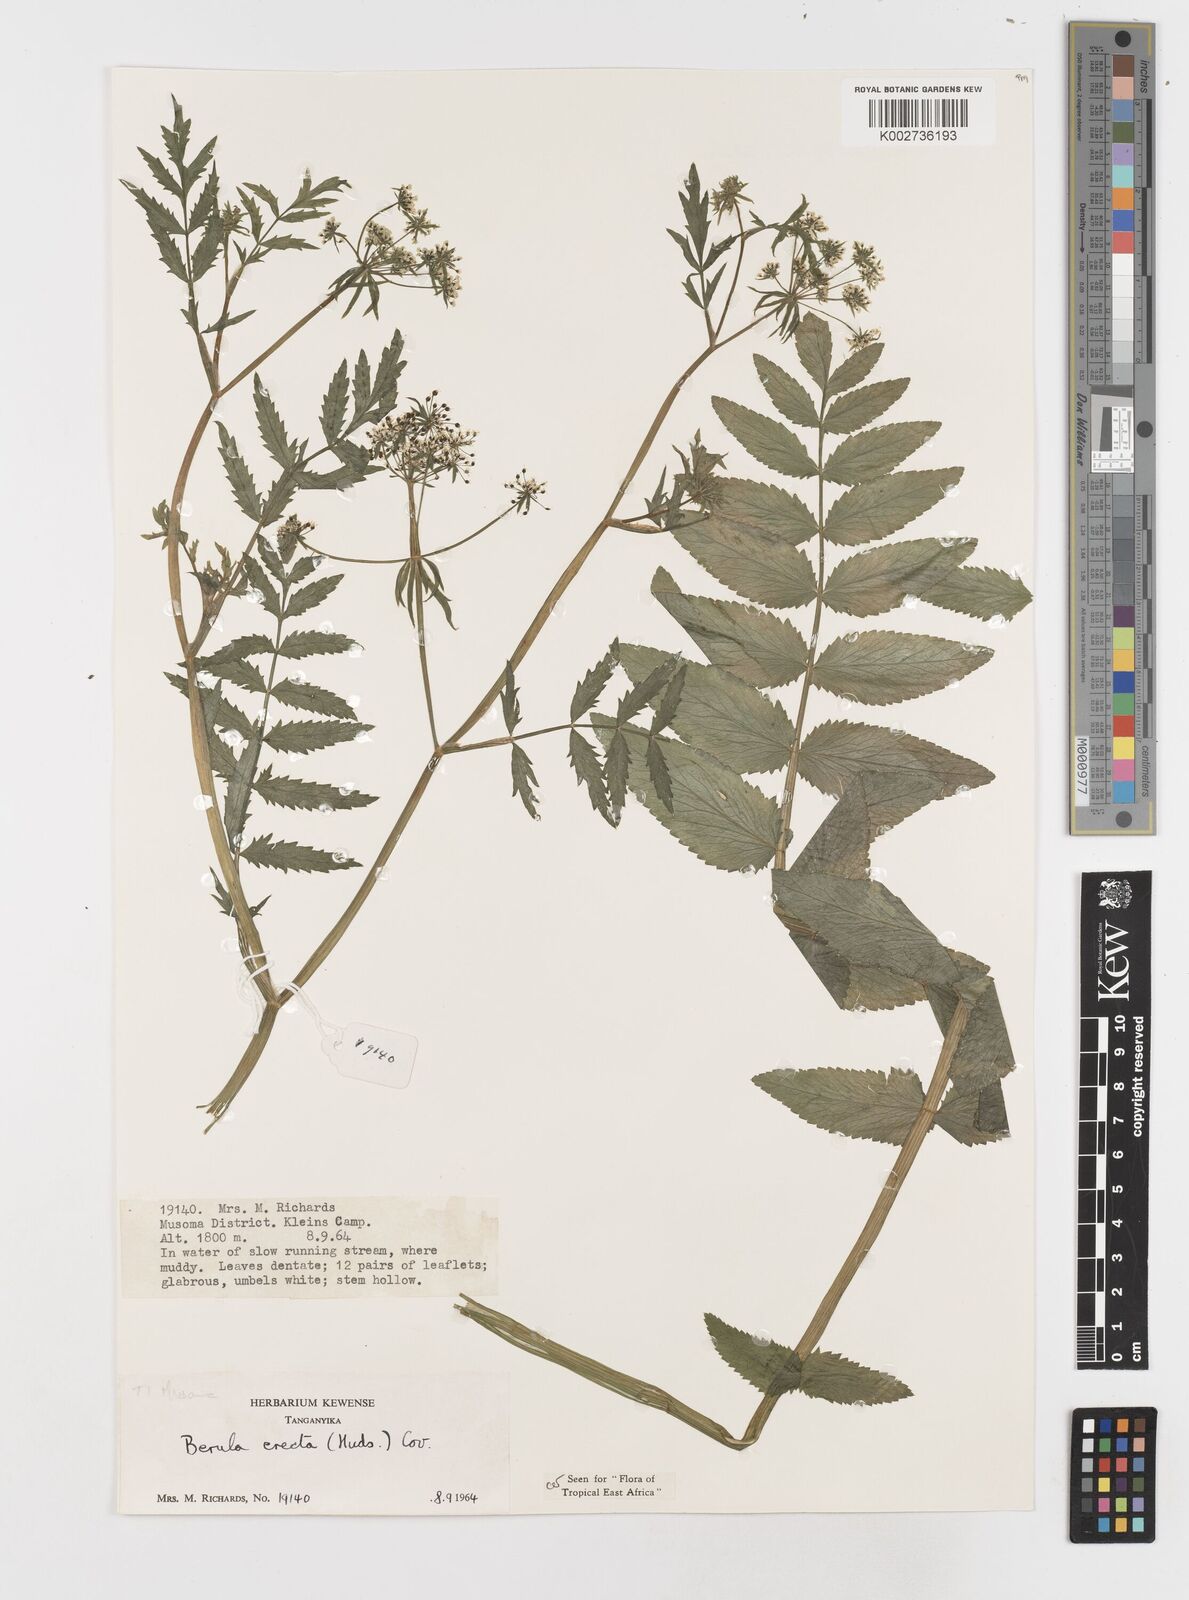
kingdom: Plantae
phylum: Tracheophyta
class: Magnoliopsida
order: Apiales
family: Apiaceae
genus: Berula
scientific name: Berula erecta
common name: Lesser water-parsnip
